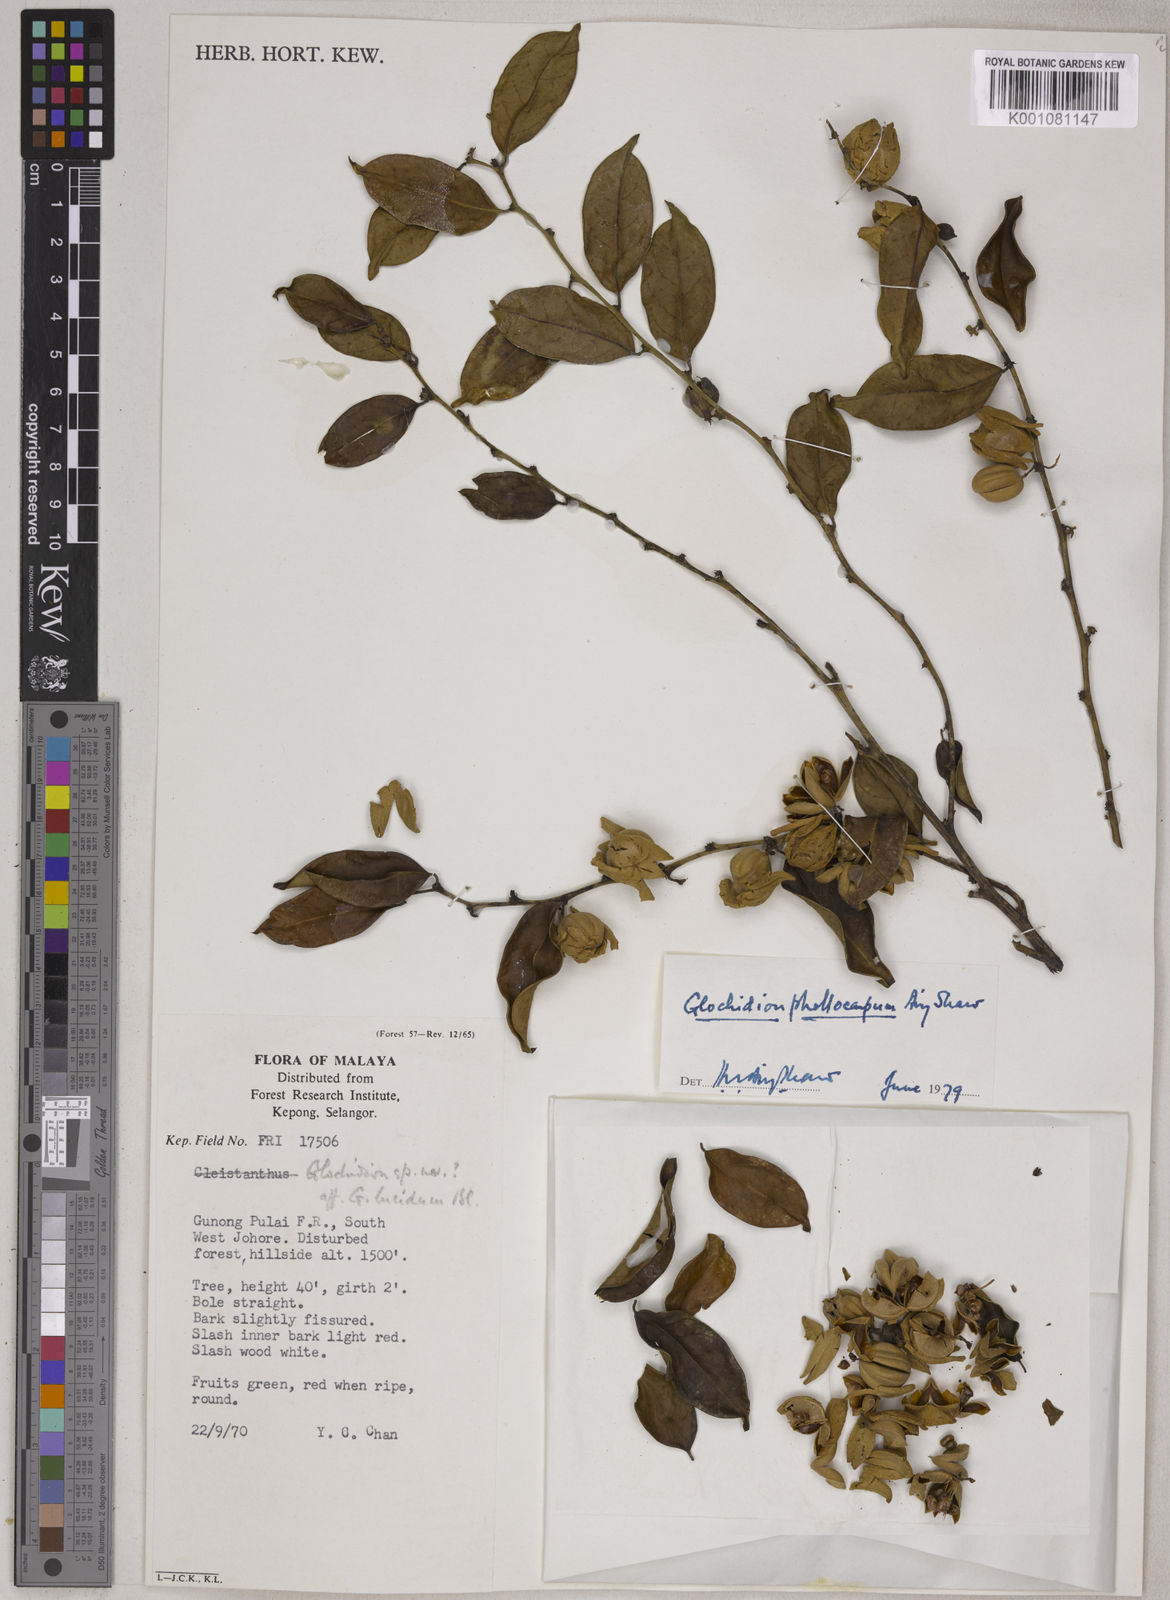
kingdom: Plantae
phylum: Tracheophyta
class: Magnoliopsida
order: Malpighiales
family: Phyllanthaceae
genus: Glochidion
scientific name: Glochidion phellocarpum
